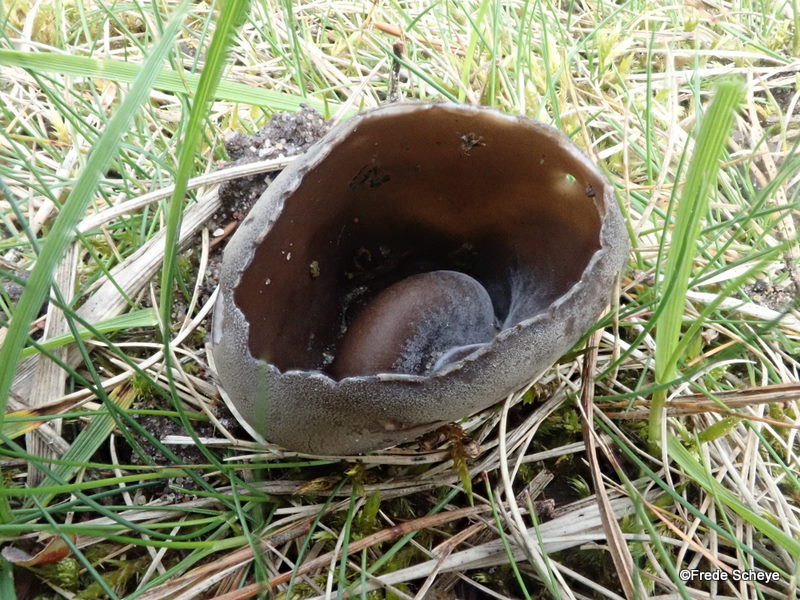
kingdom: Fungi
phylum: Ascomycota
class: Pezizomycetes
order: Pezizales
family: Helvellaceae
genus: Dissingia
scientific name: Dissingia leucomelaena
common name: sorthvid foldhat
